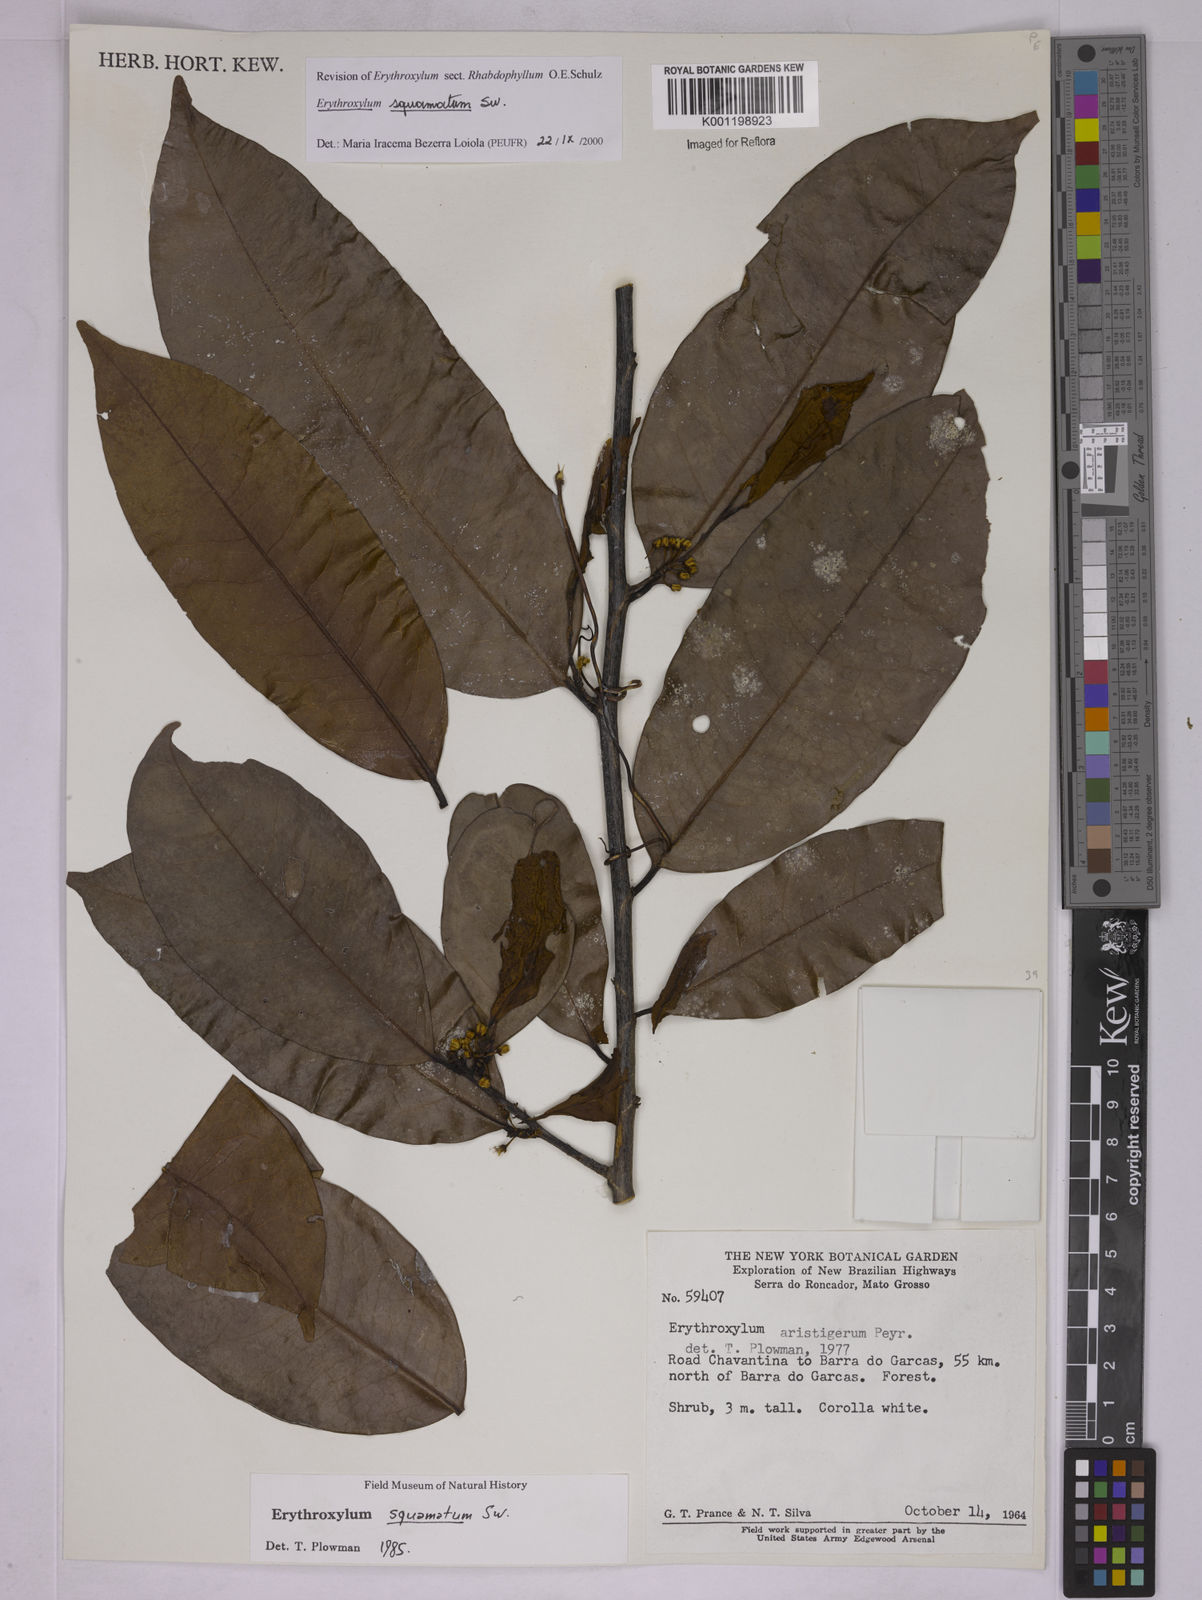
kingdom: Plantae
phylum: Tracheophyta
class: Magnoliopsida
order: Malpighiales
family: Erythroxylaceae
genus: Erythroxylum
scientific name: Erythroxylum squamatum
